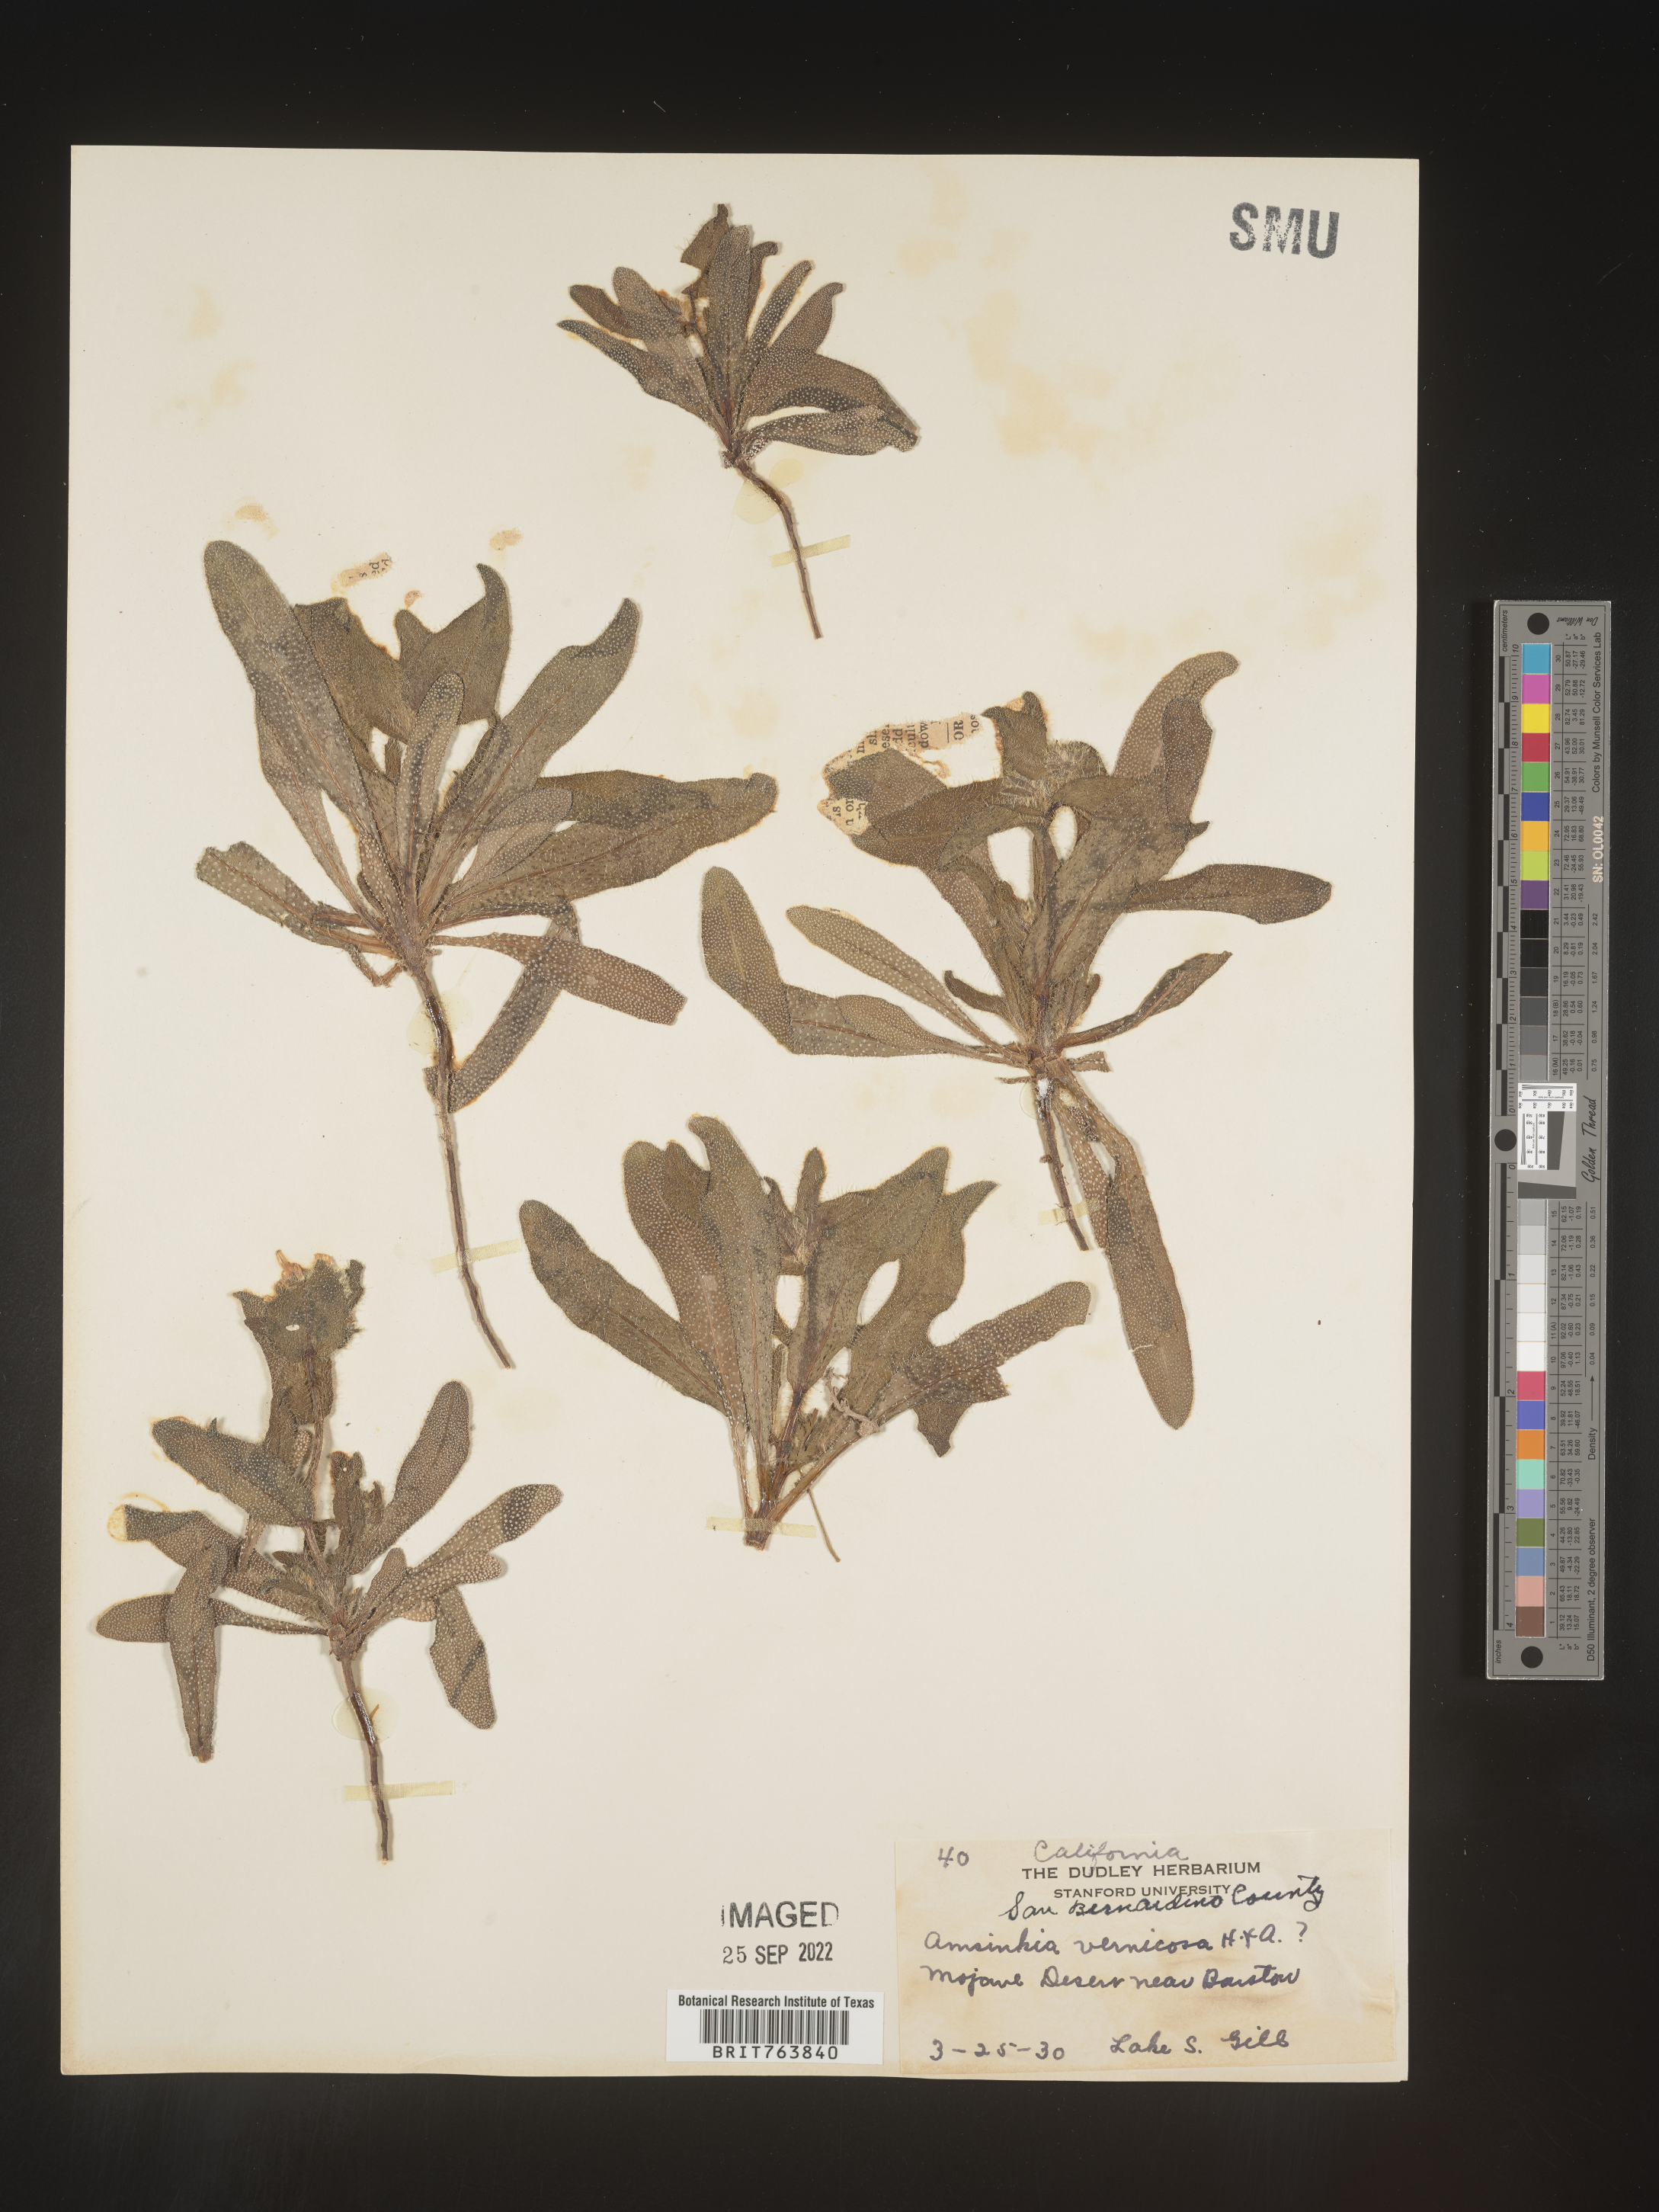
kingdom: Plantae
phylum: Tracheophyta
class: Magnoliopsida
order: Boraginales
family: Boraginaceae
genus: Amsinckia
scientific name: Amsinckia
